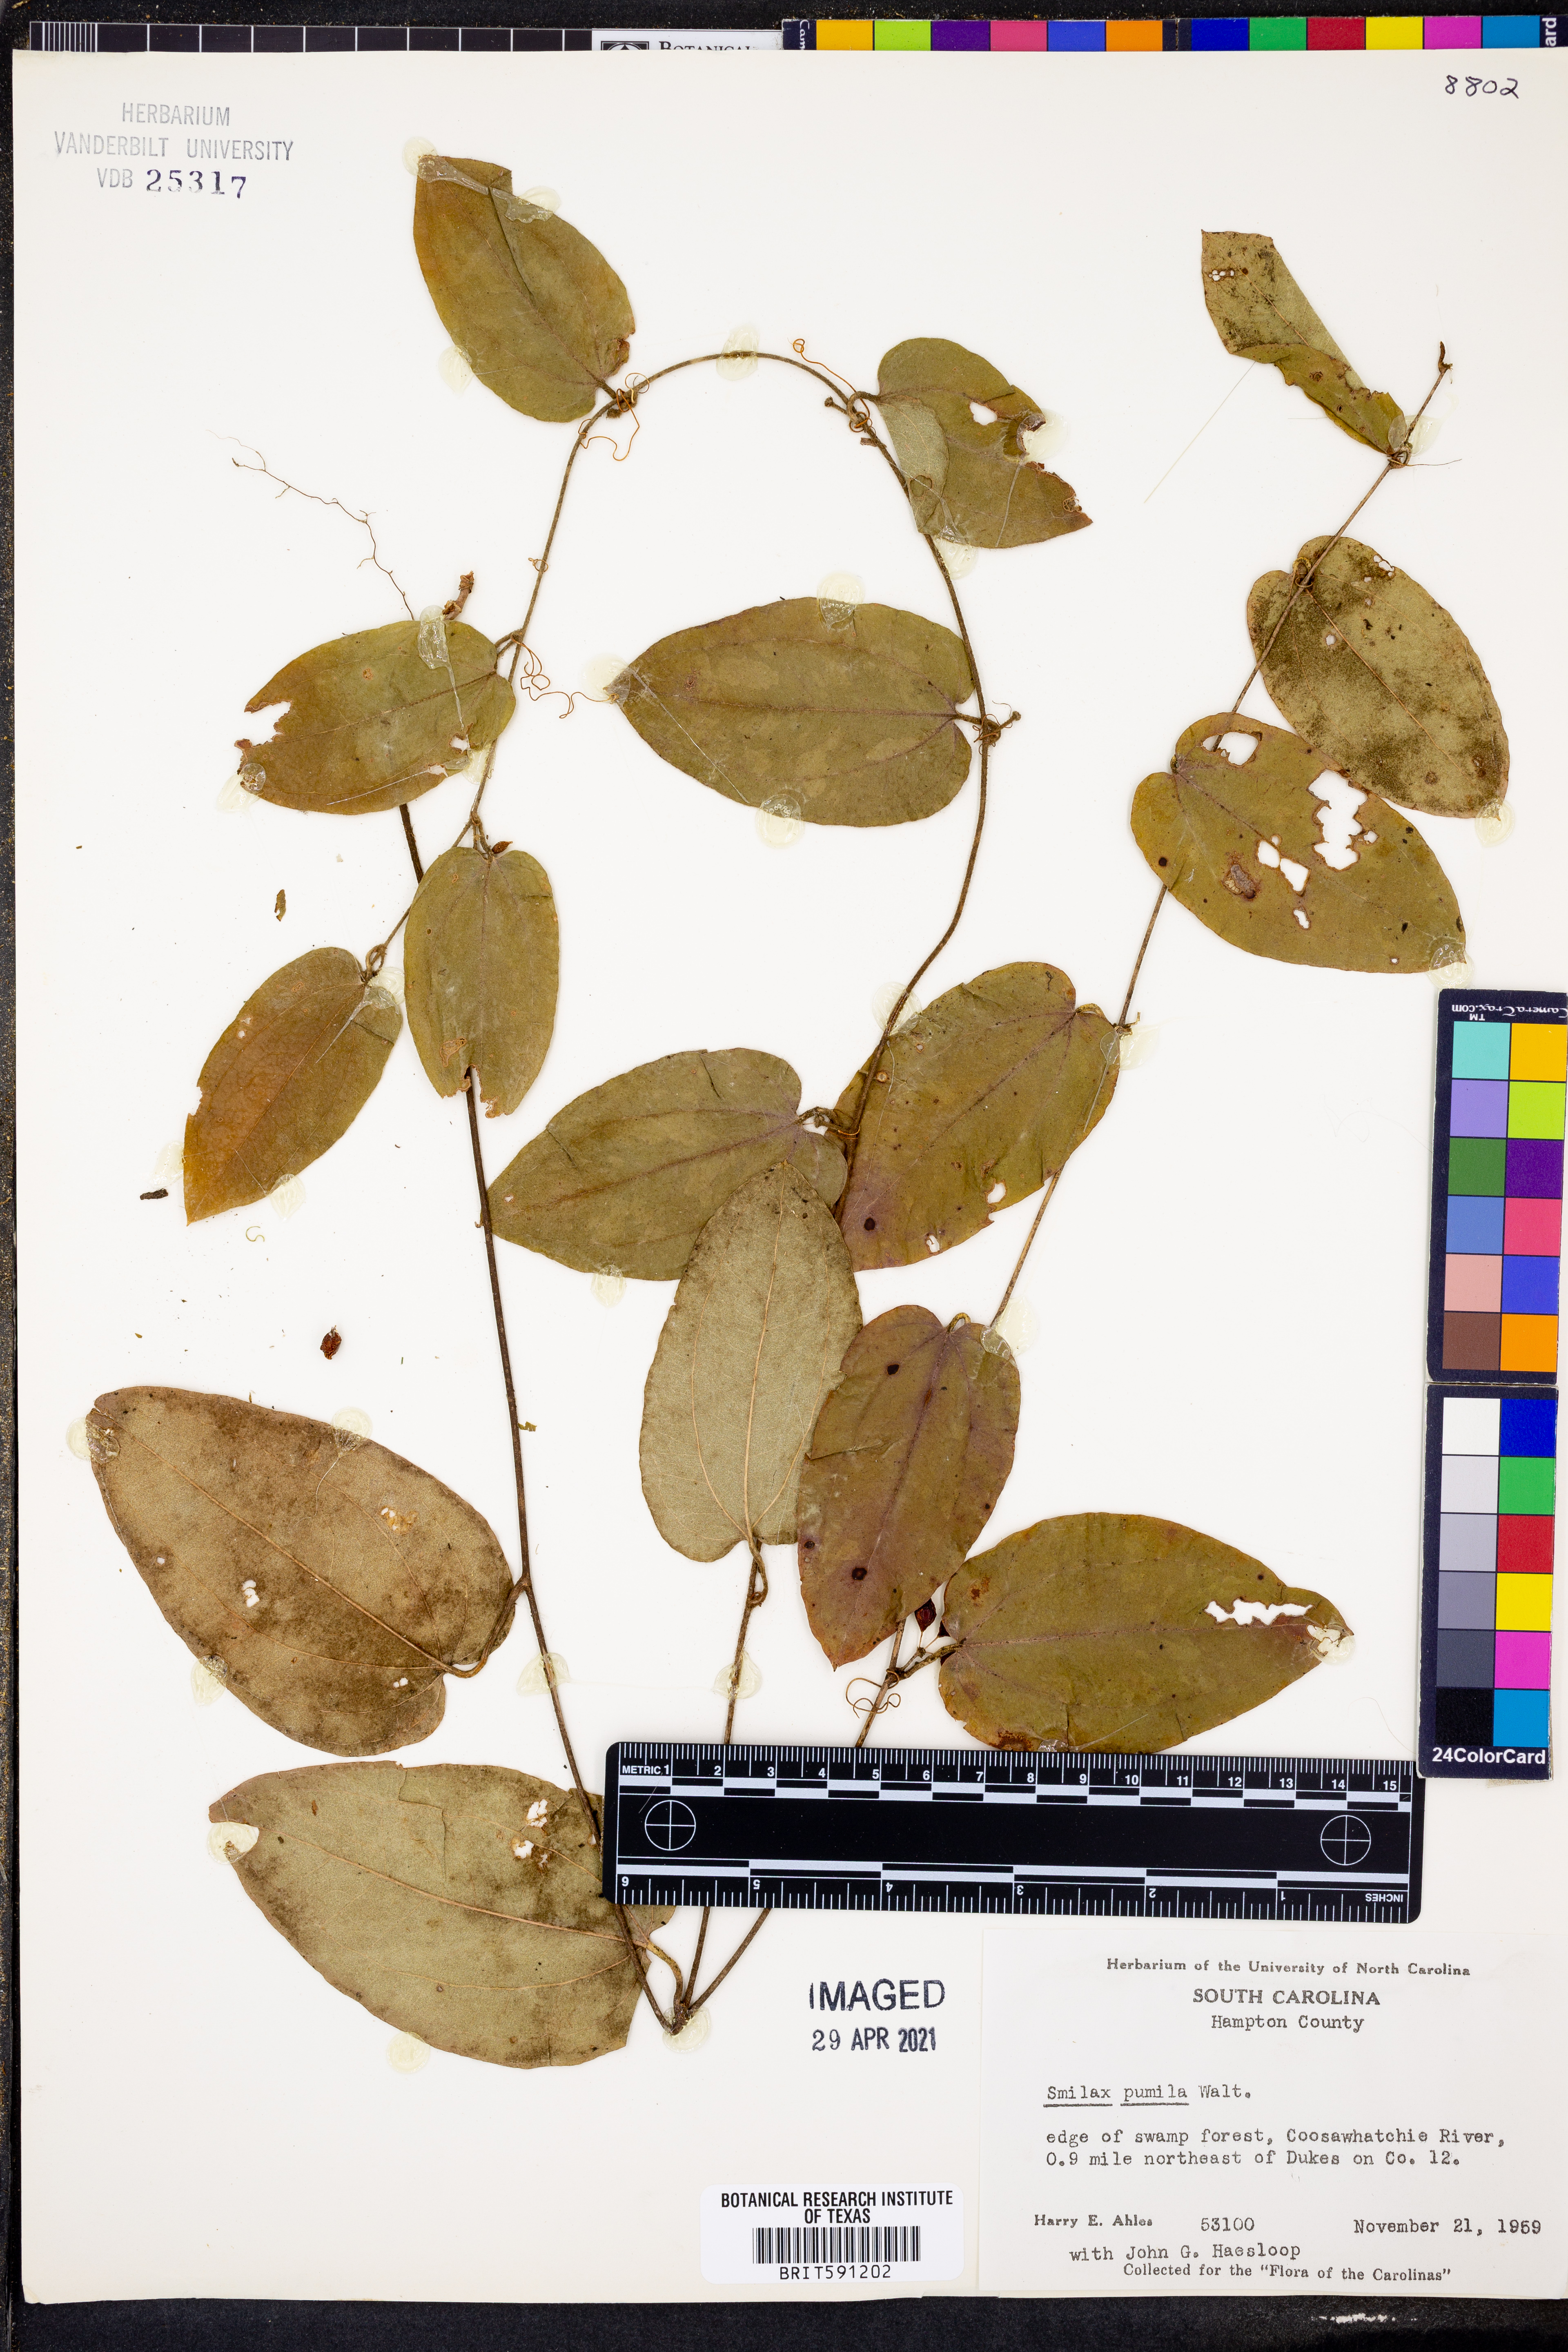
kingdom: Plantae
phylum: Tracheophyta
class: Liliopsida
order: Liliales
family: Smilacaceae
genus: Smilax
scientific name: Smilax pumila
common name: Sarsaparilla-vine
